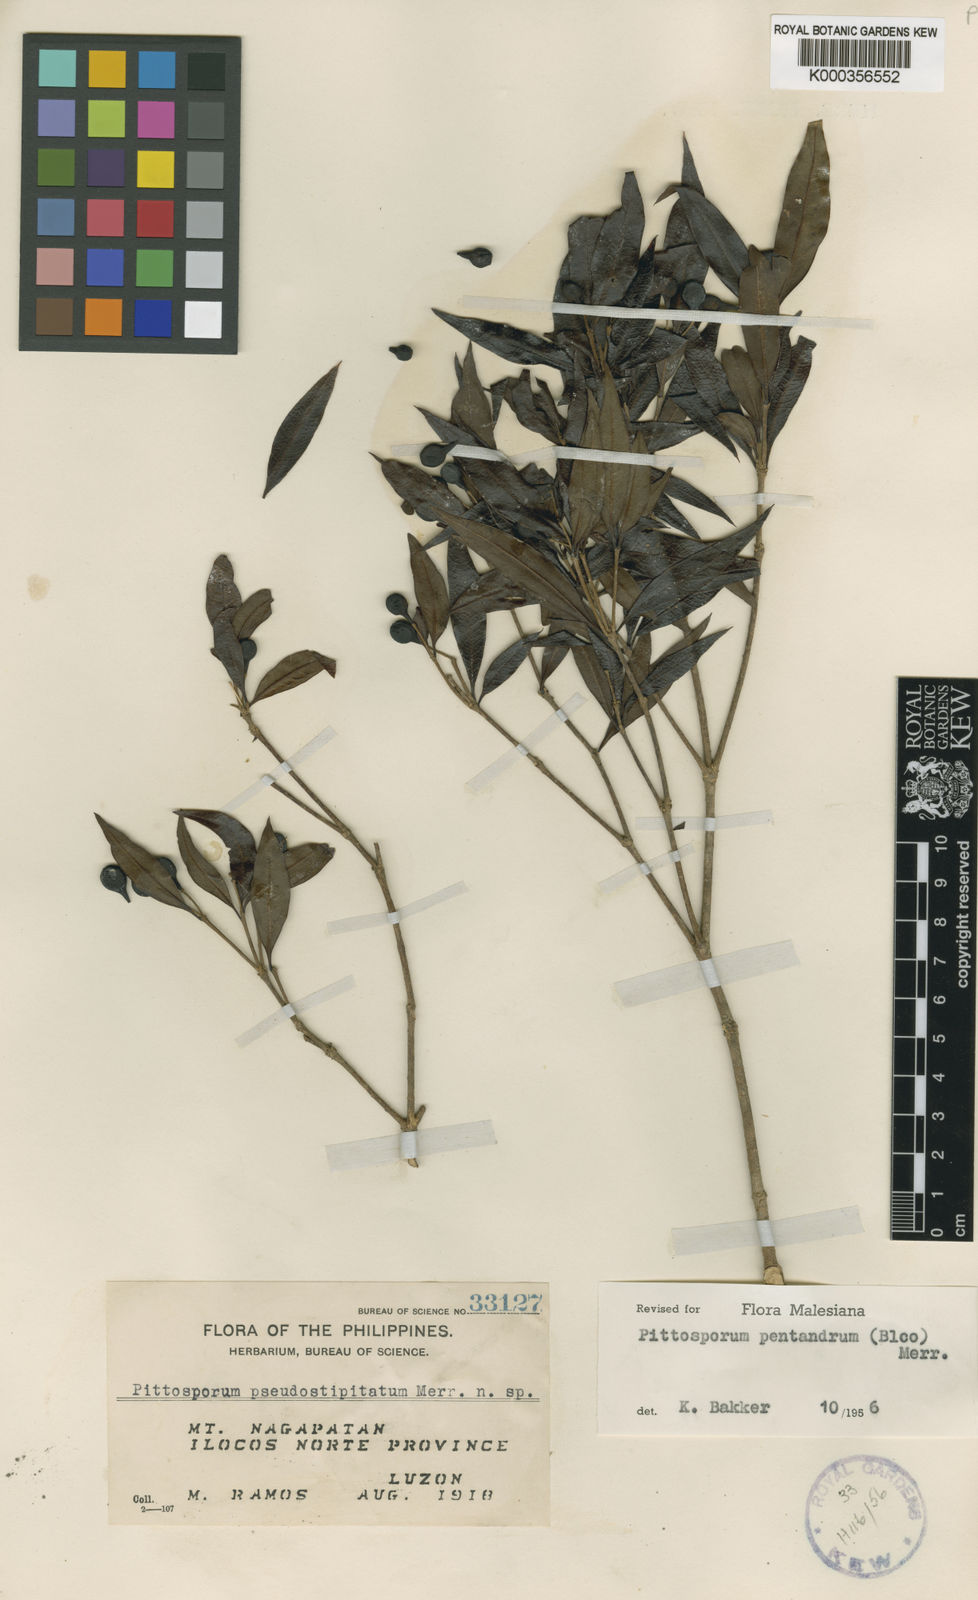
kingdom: Plantae
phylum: Tracheophyta
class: Magnoliopsida
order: Apiales
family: Pittosporaceae
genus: Pittosporum
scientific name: Pittosporum pentandrum
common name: Taiwanese cheesewood
